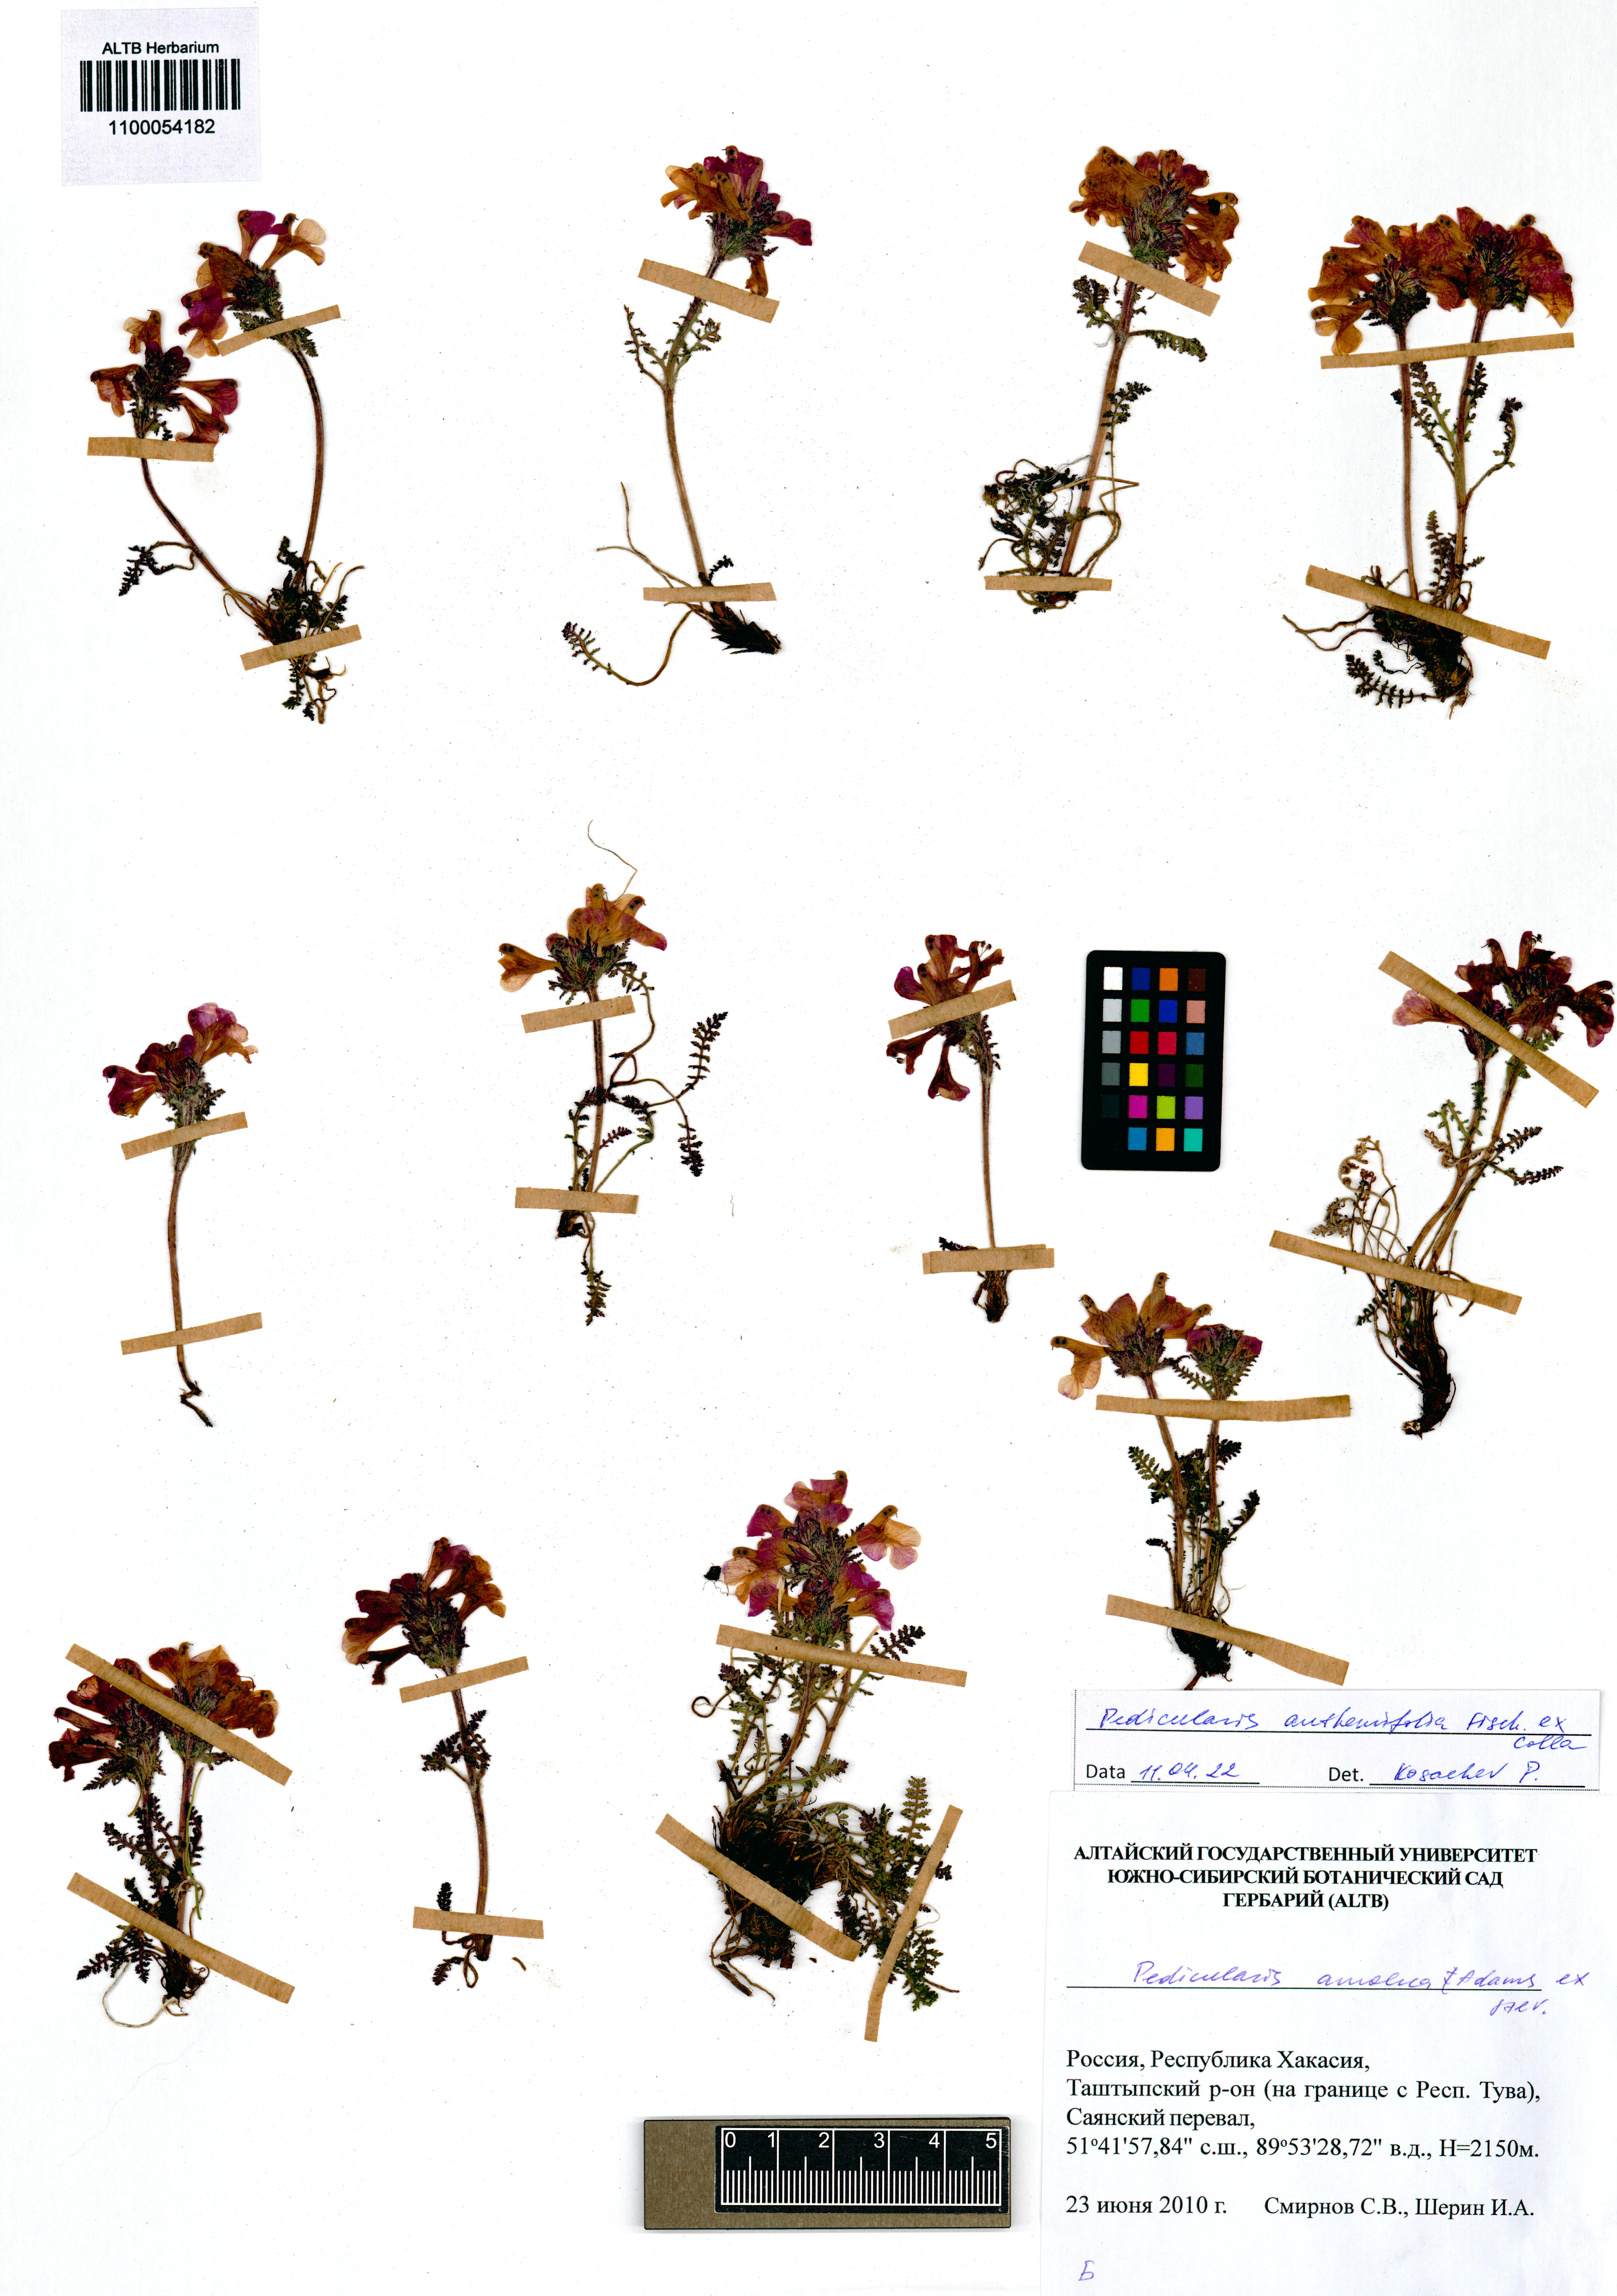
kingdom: Plantae
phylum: Tracheophyta
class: Magnoliopsida
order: Lamiales
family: Orobanchaceae
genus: Pedicularis
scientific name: Pedicularis anthemifolia
